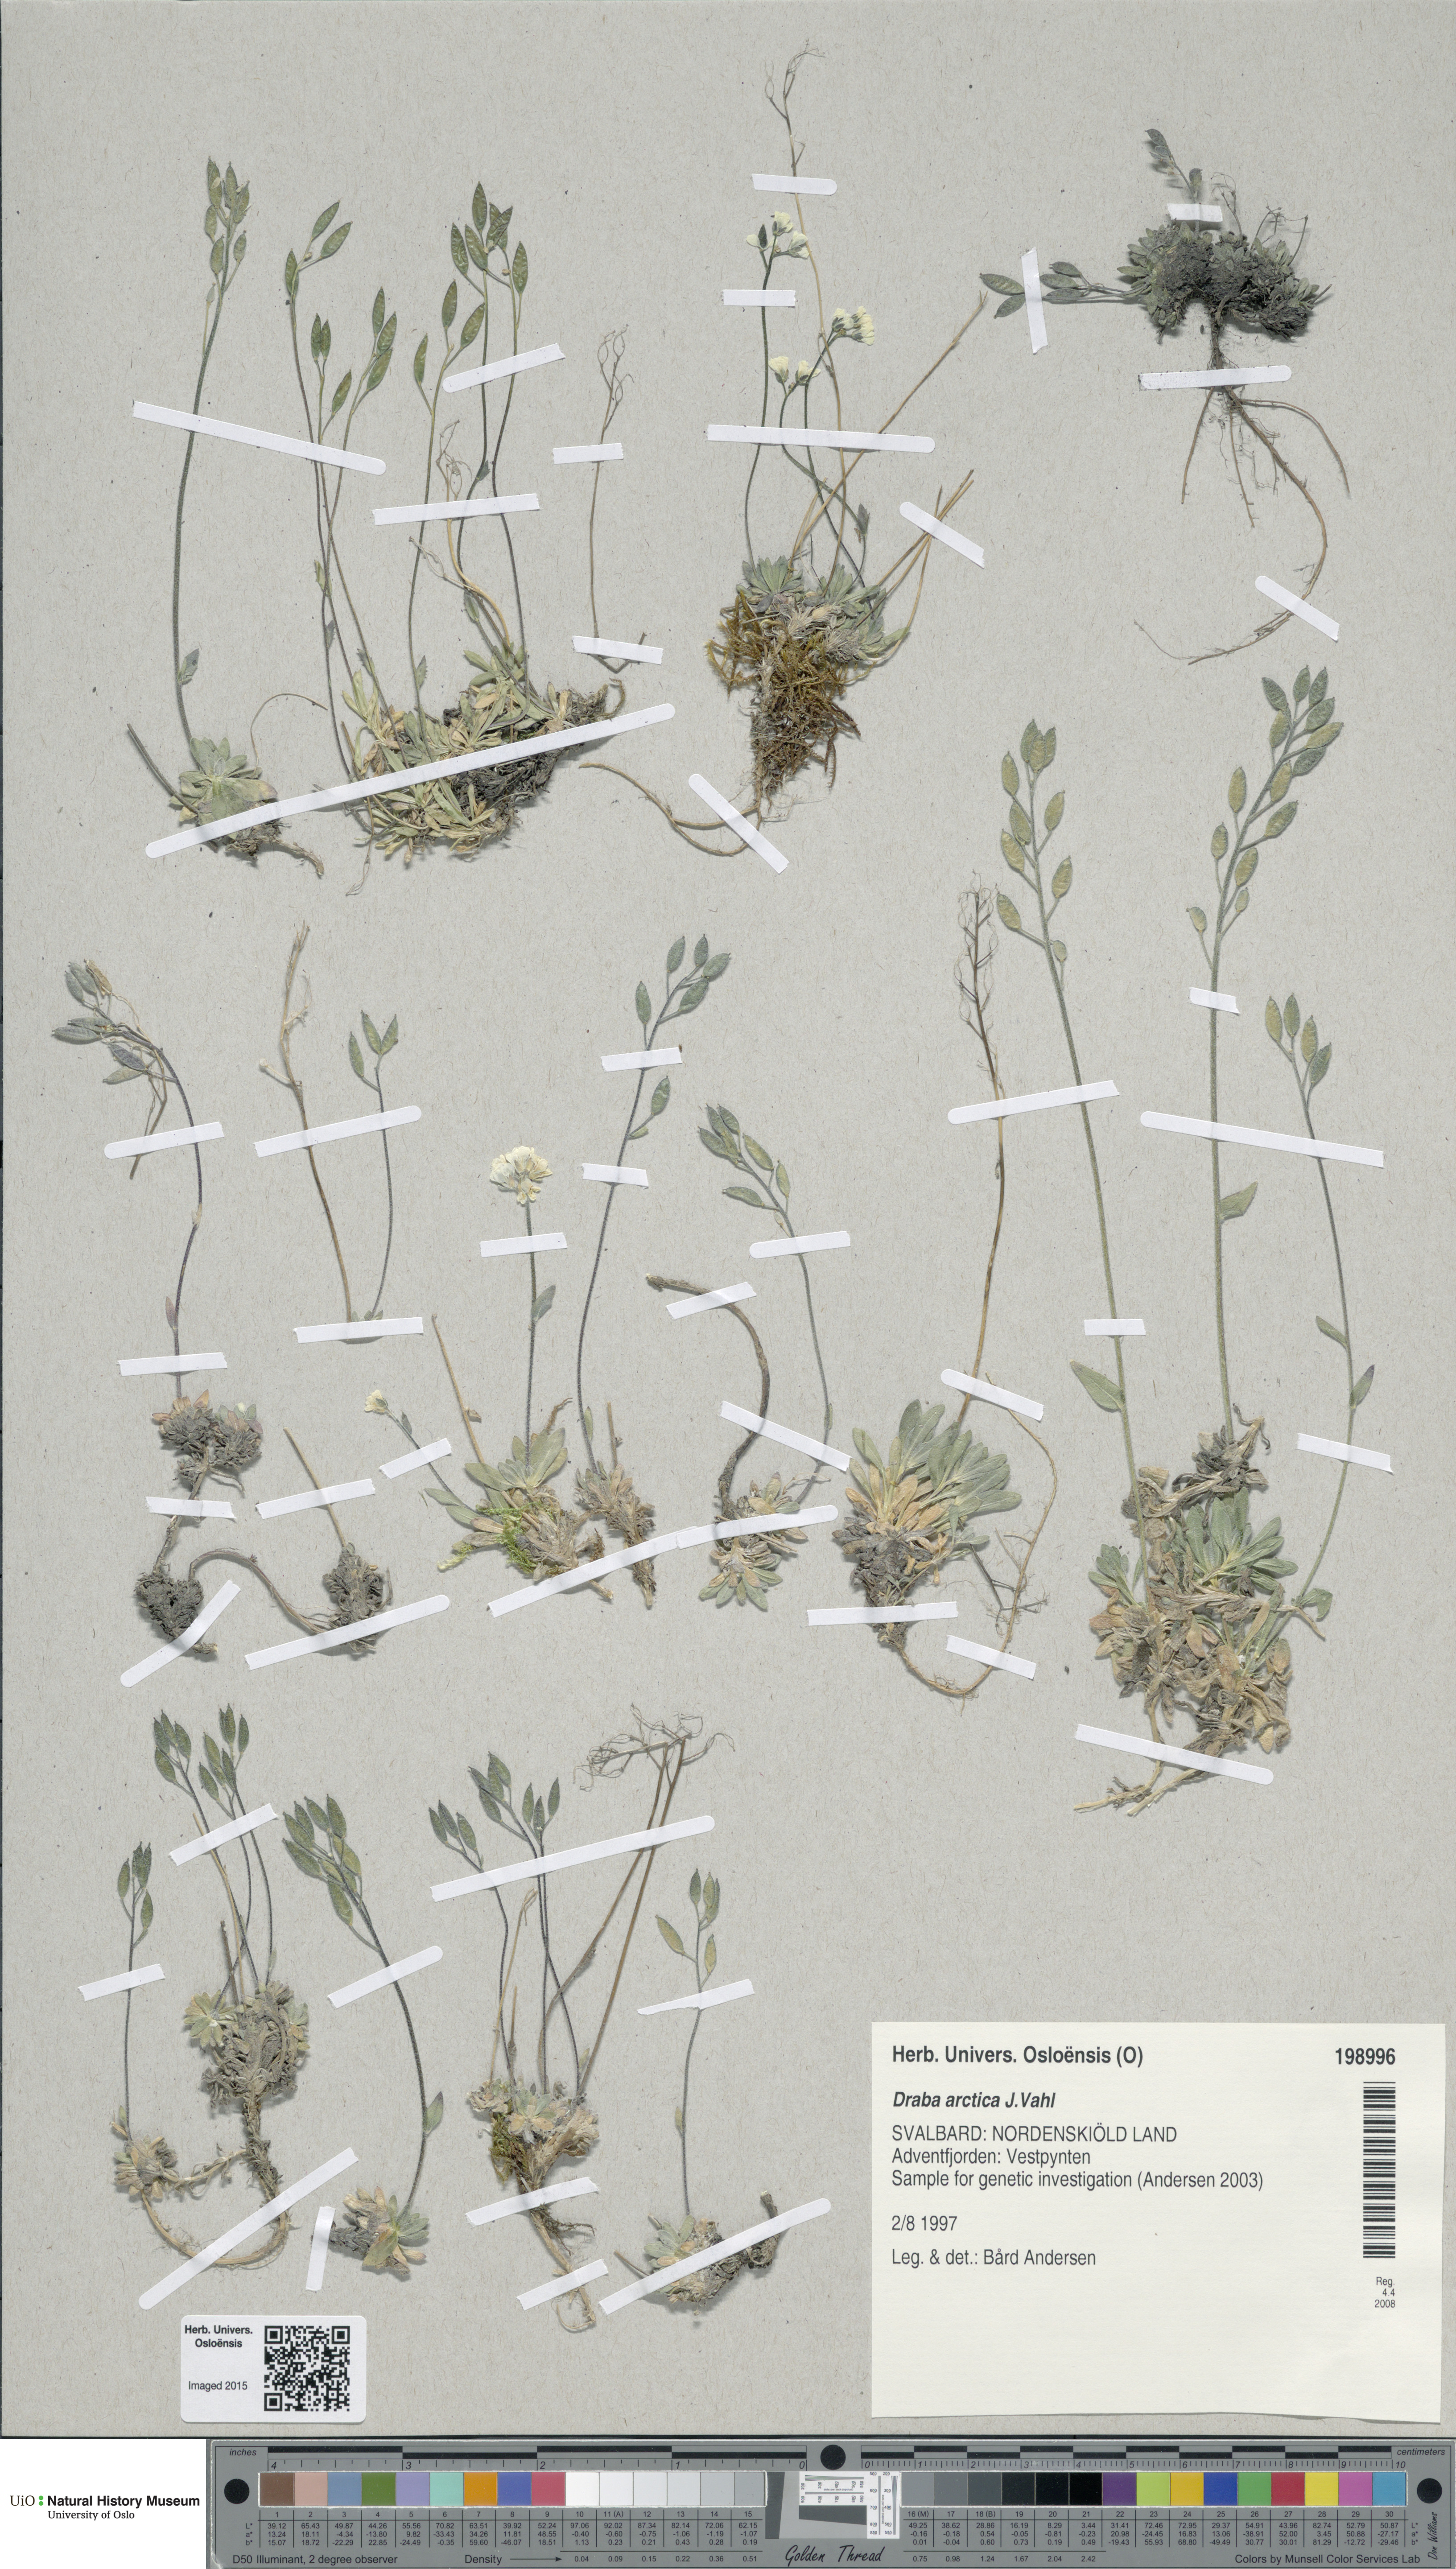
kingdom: Plantae
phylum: Tracheophyta
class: Magnoliopsida
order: Brassicales
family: Brassicaceae
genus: Draba
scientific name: Draba arctica
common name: Arctic draba
